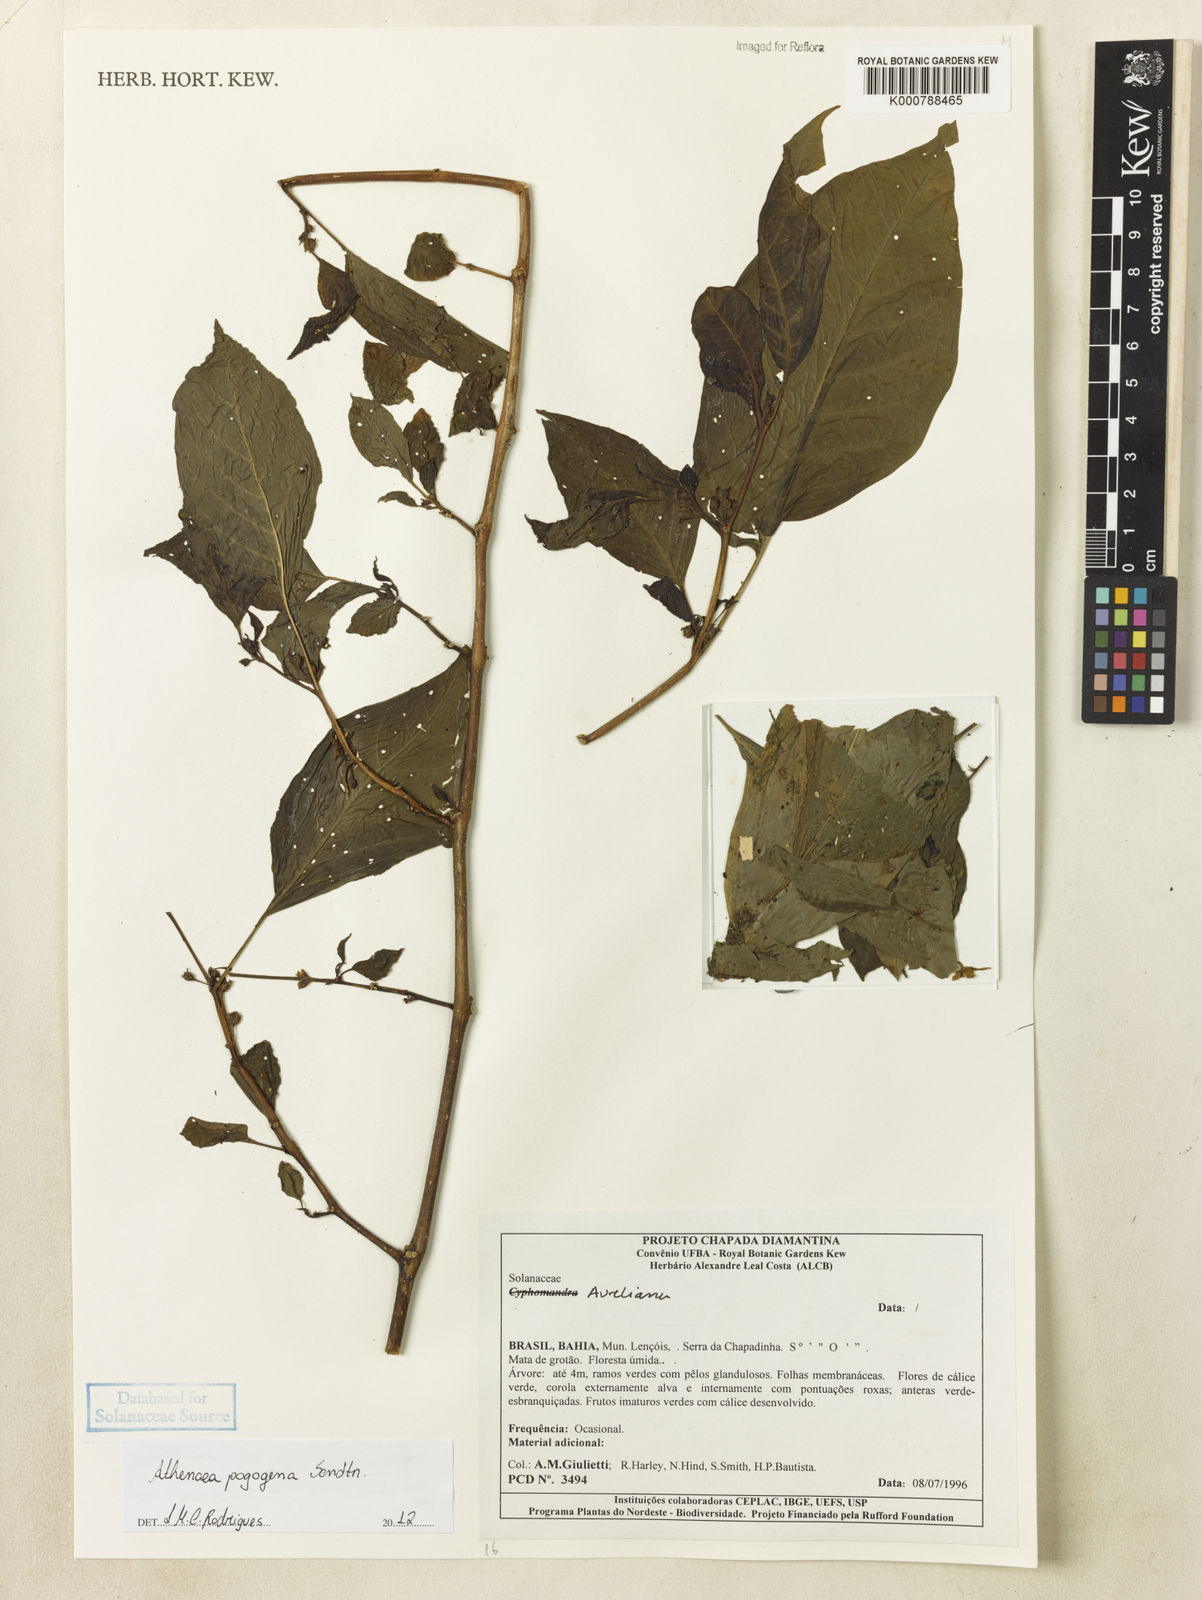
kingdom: Plantae
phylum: Tracheophyta
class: Magnoliopsida
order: Solanales
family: Solanaceae
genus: Athenaea
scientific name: Athenaea pogogena
